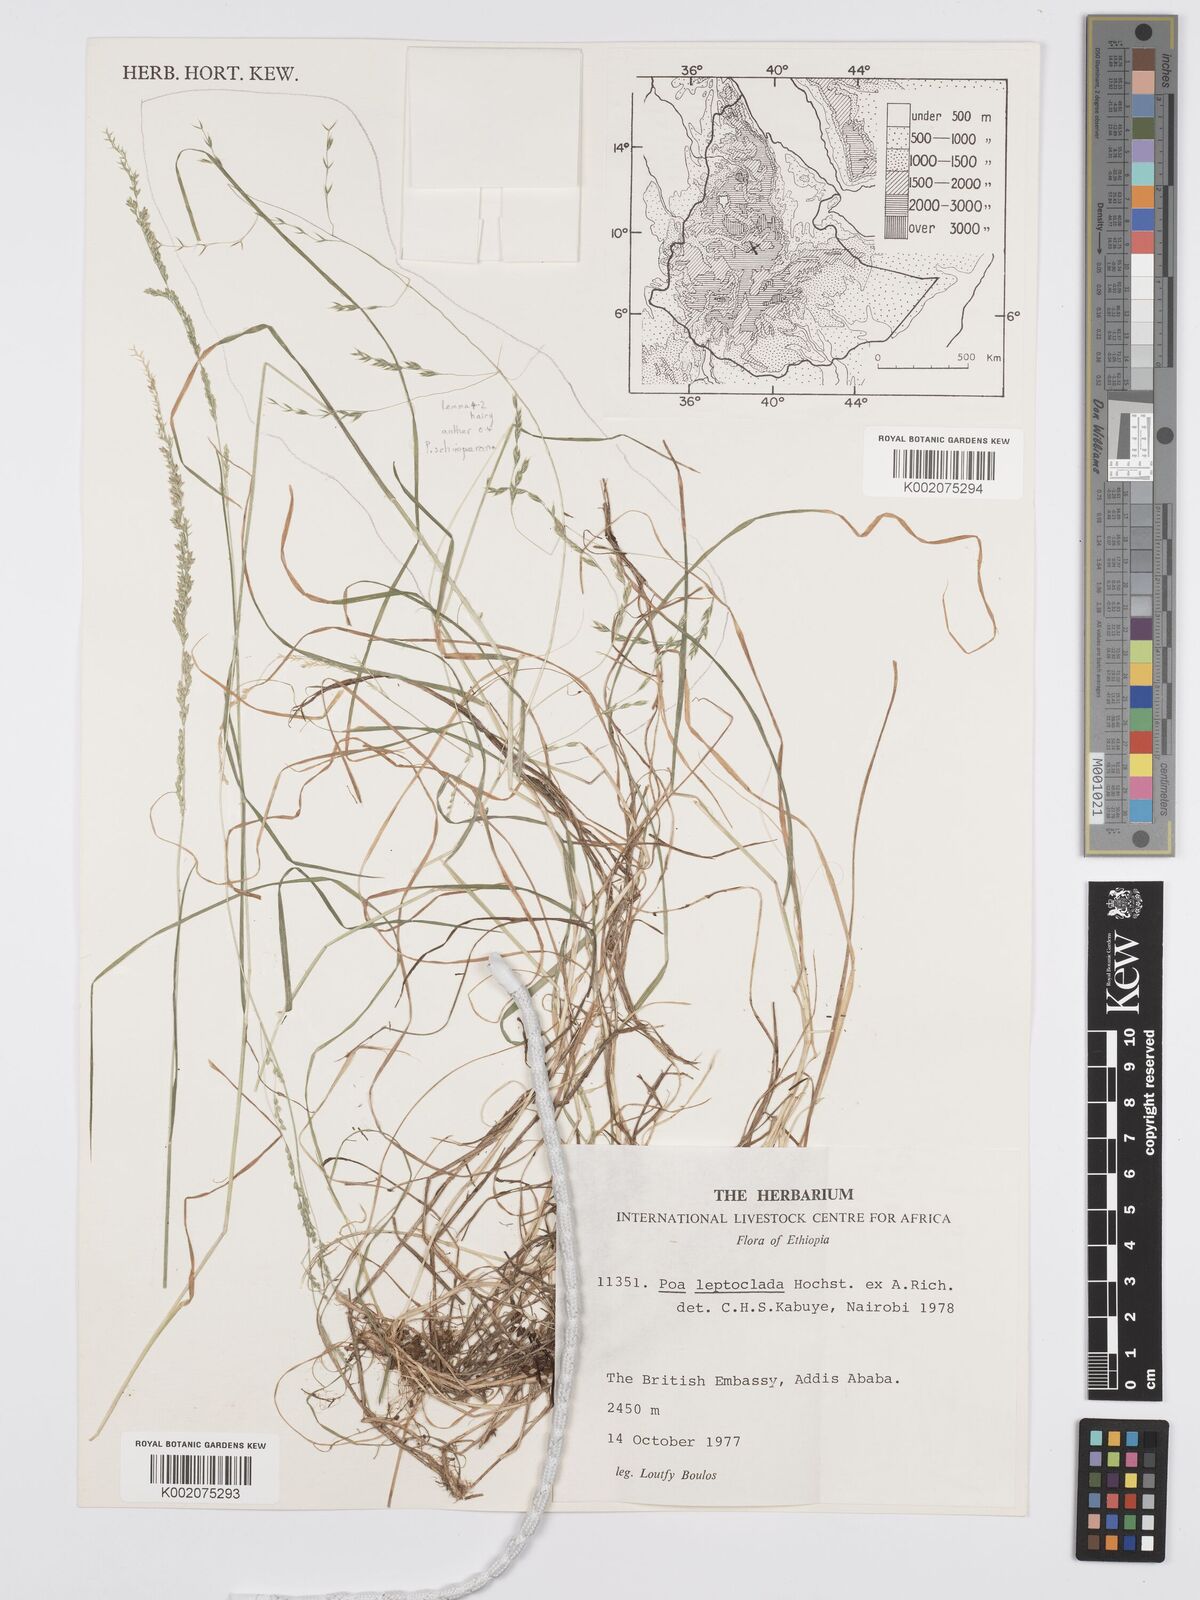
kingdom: Plantae
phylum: Tracheophyta
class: Liliopsida
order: Poales
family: Poaceae
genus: Poa
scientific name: Poa leptoclada
